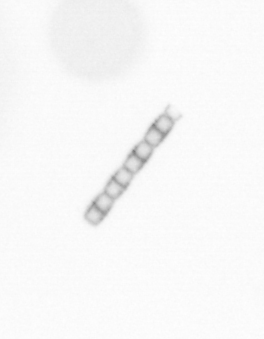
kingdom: Chromista
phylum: Ochrophyta
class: Bacillariophyceae
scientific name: Bacillariophyceae
